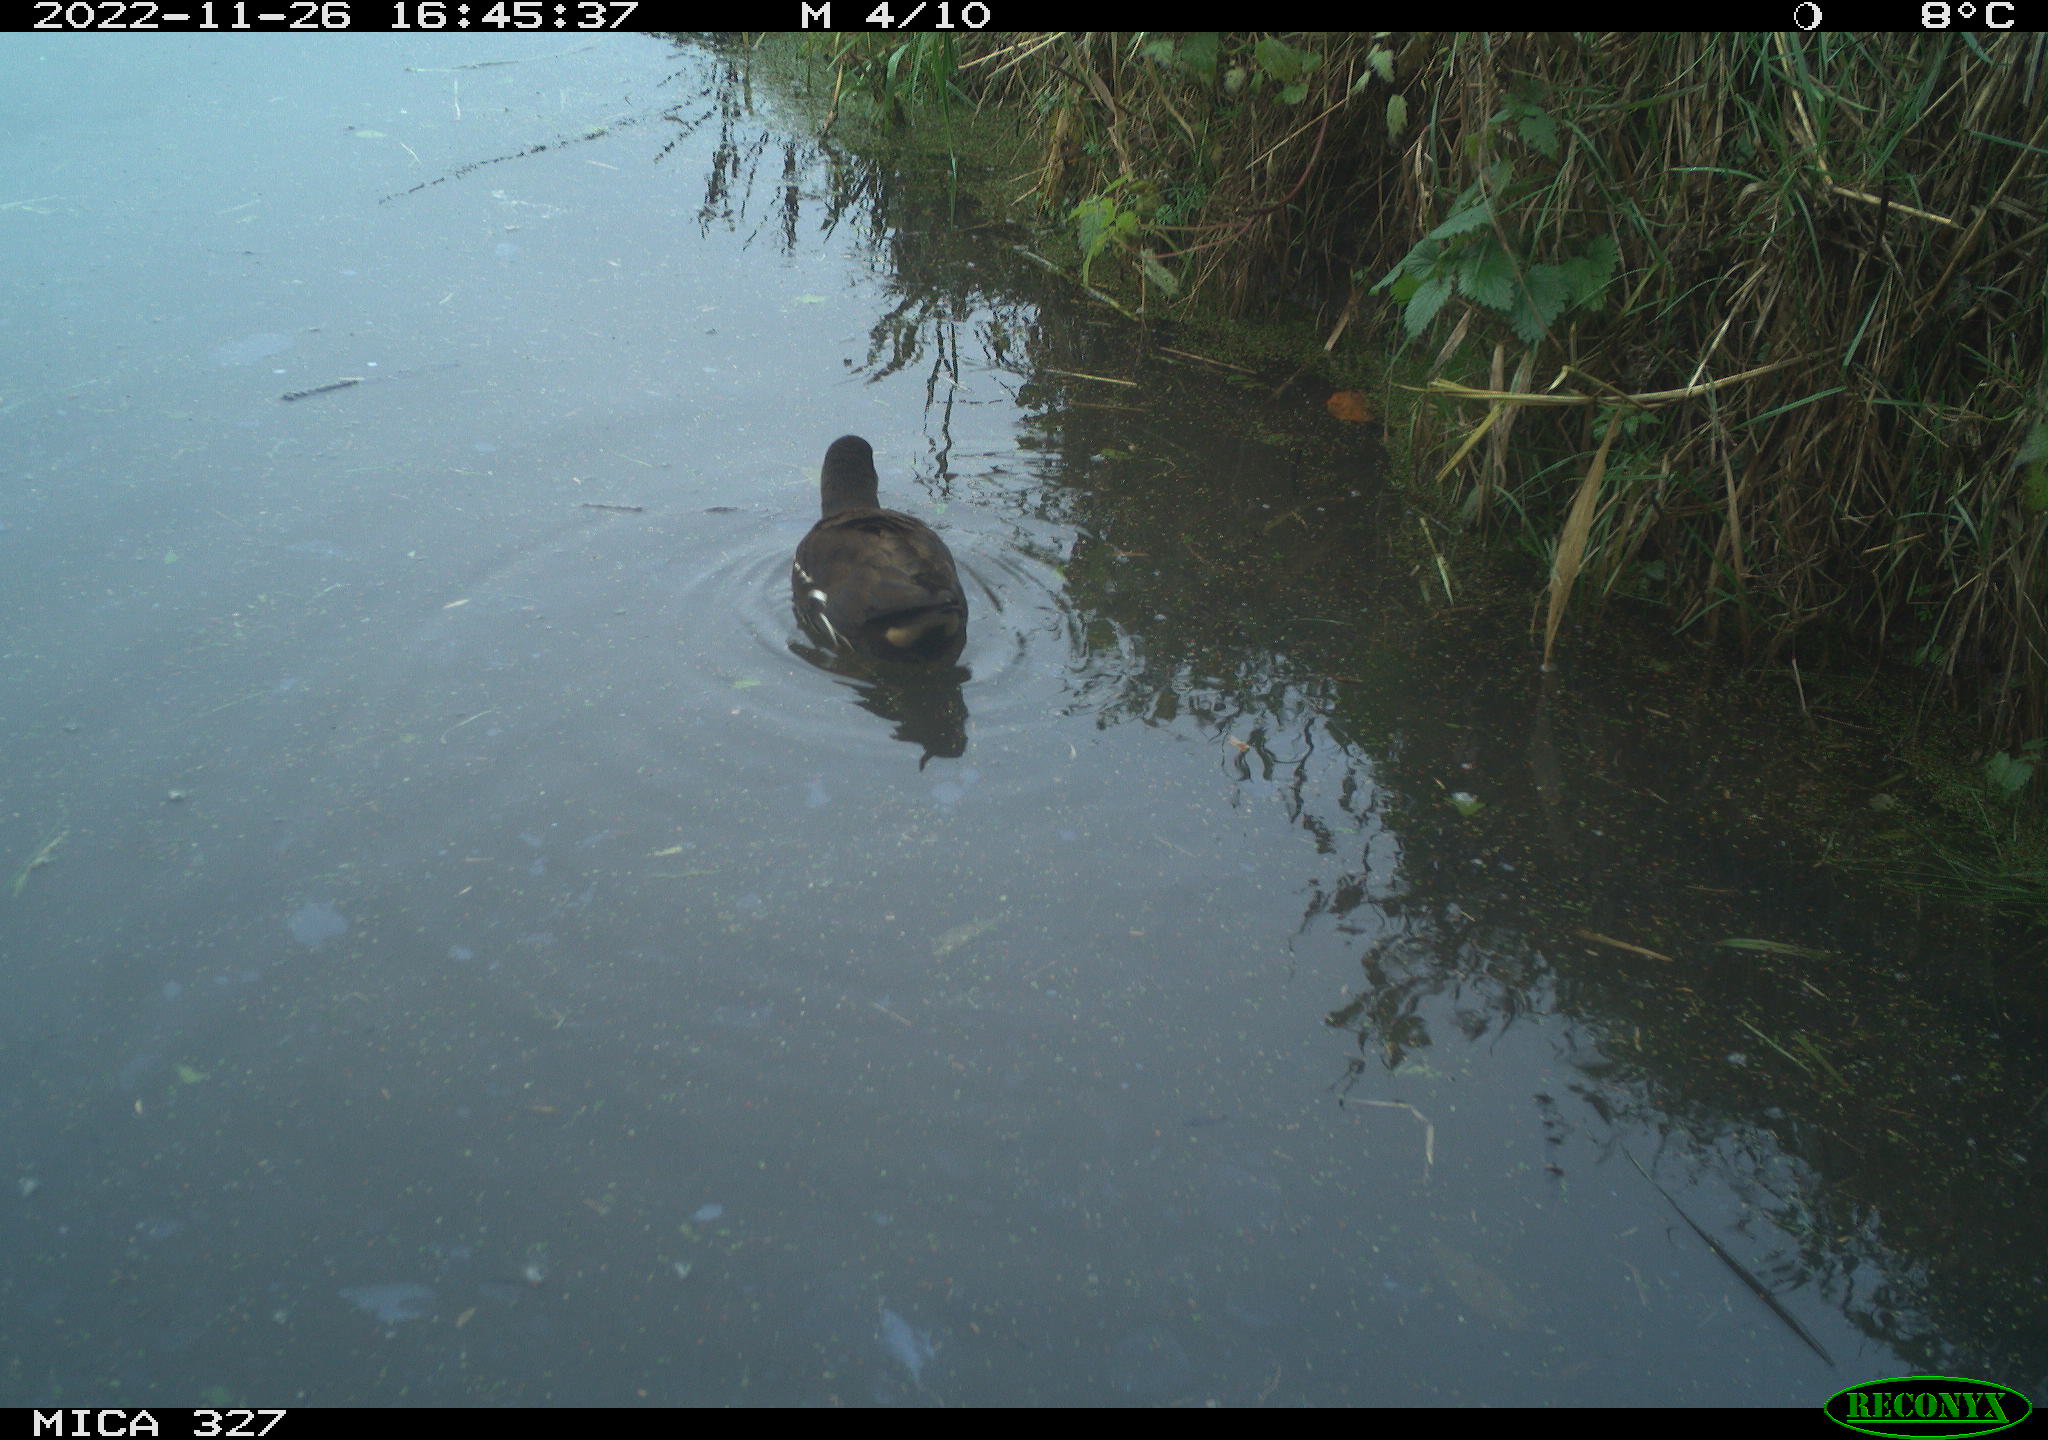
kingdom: Animalia
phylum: Chordata
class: Aves
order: Gruiformes
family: Rallidae
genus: Gallinula
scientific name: Gallinula chloropus
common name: Common moorhen
